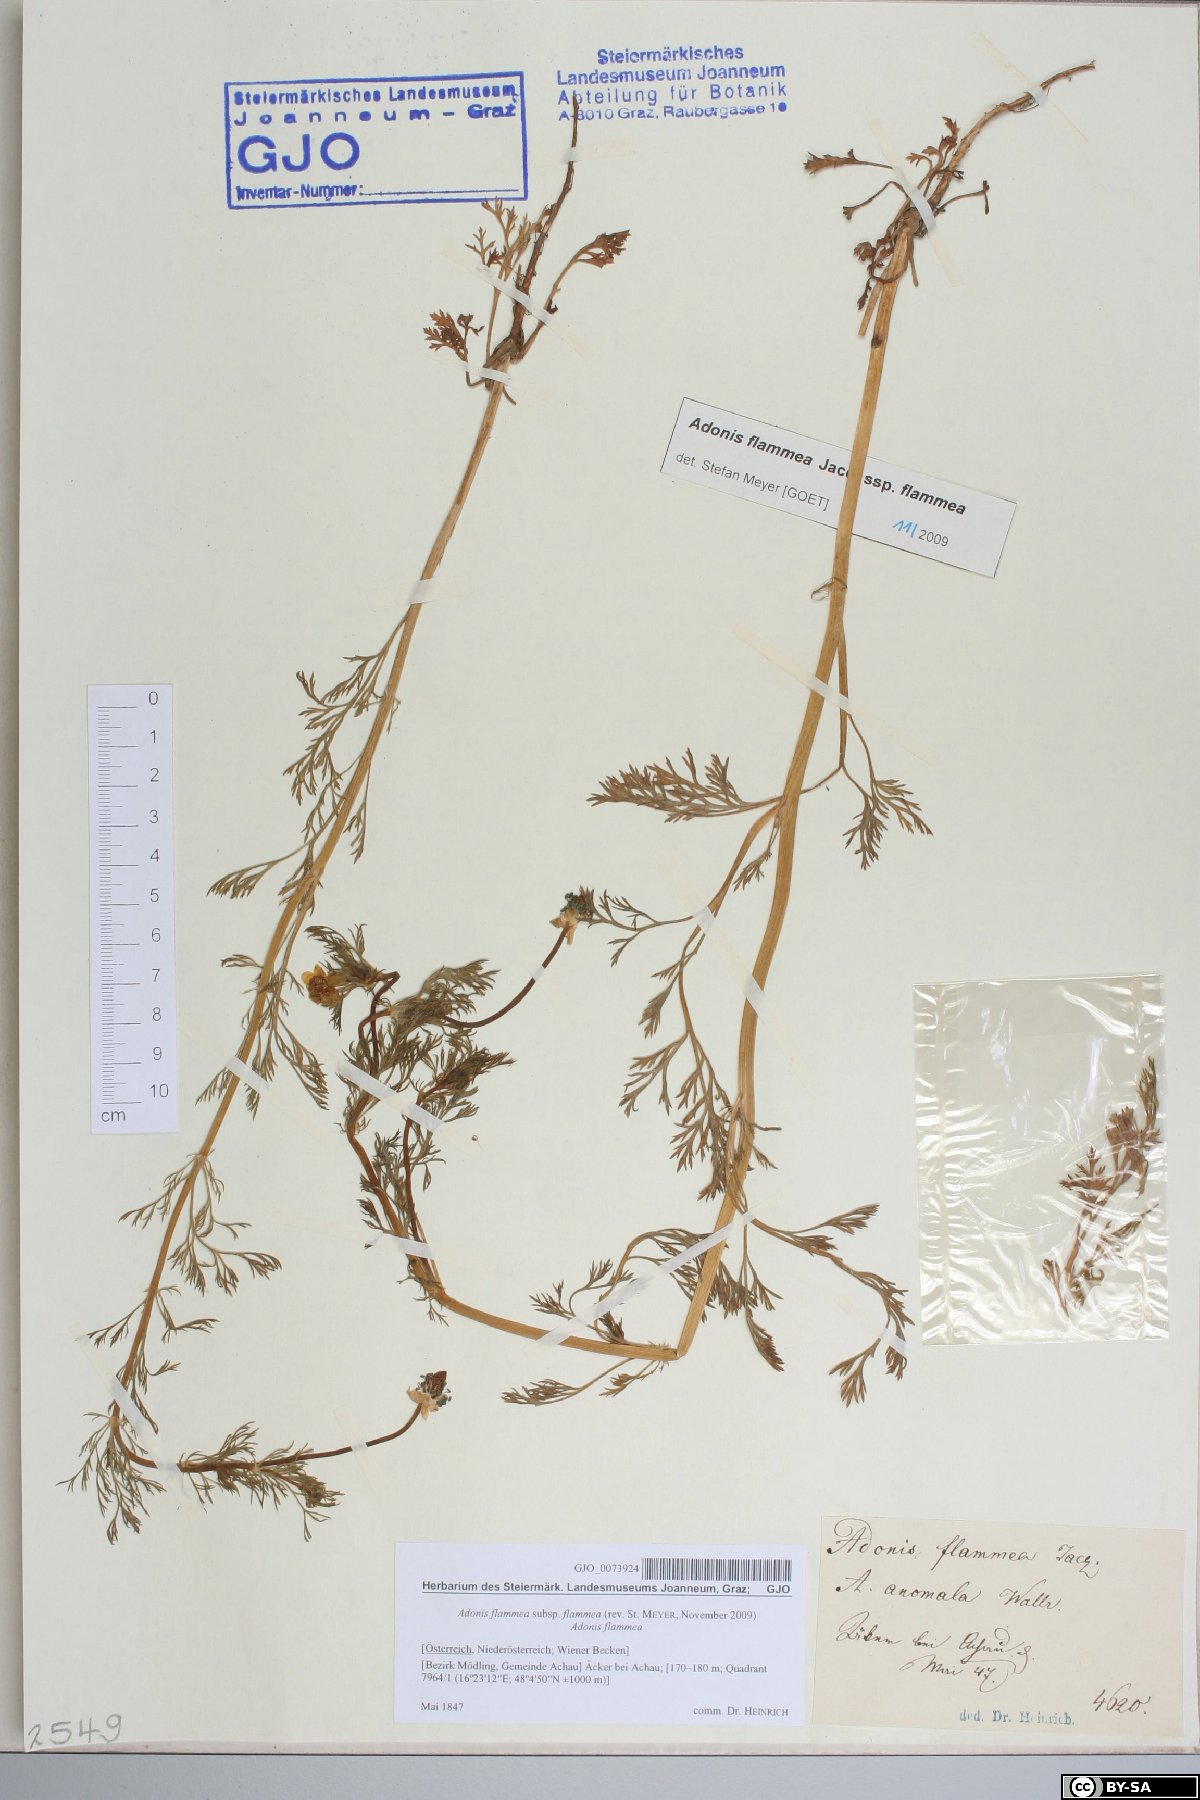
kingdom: Plantae
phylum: Tracheophyta
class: Magnoliopsida
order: Ranunculales
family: Ranunculaceae
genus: Adonis
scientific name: Adonis flammea
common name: Large pheasant's-eye
